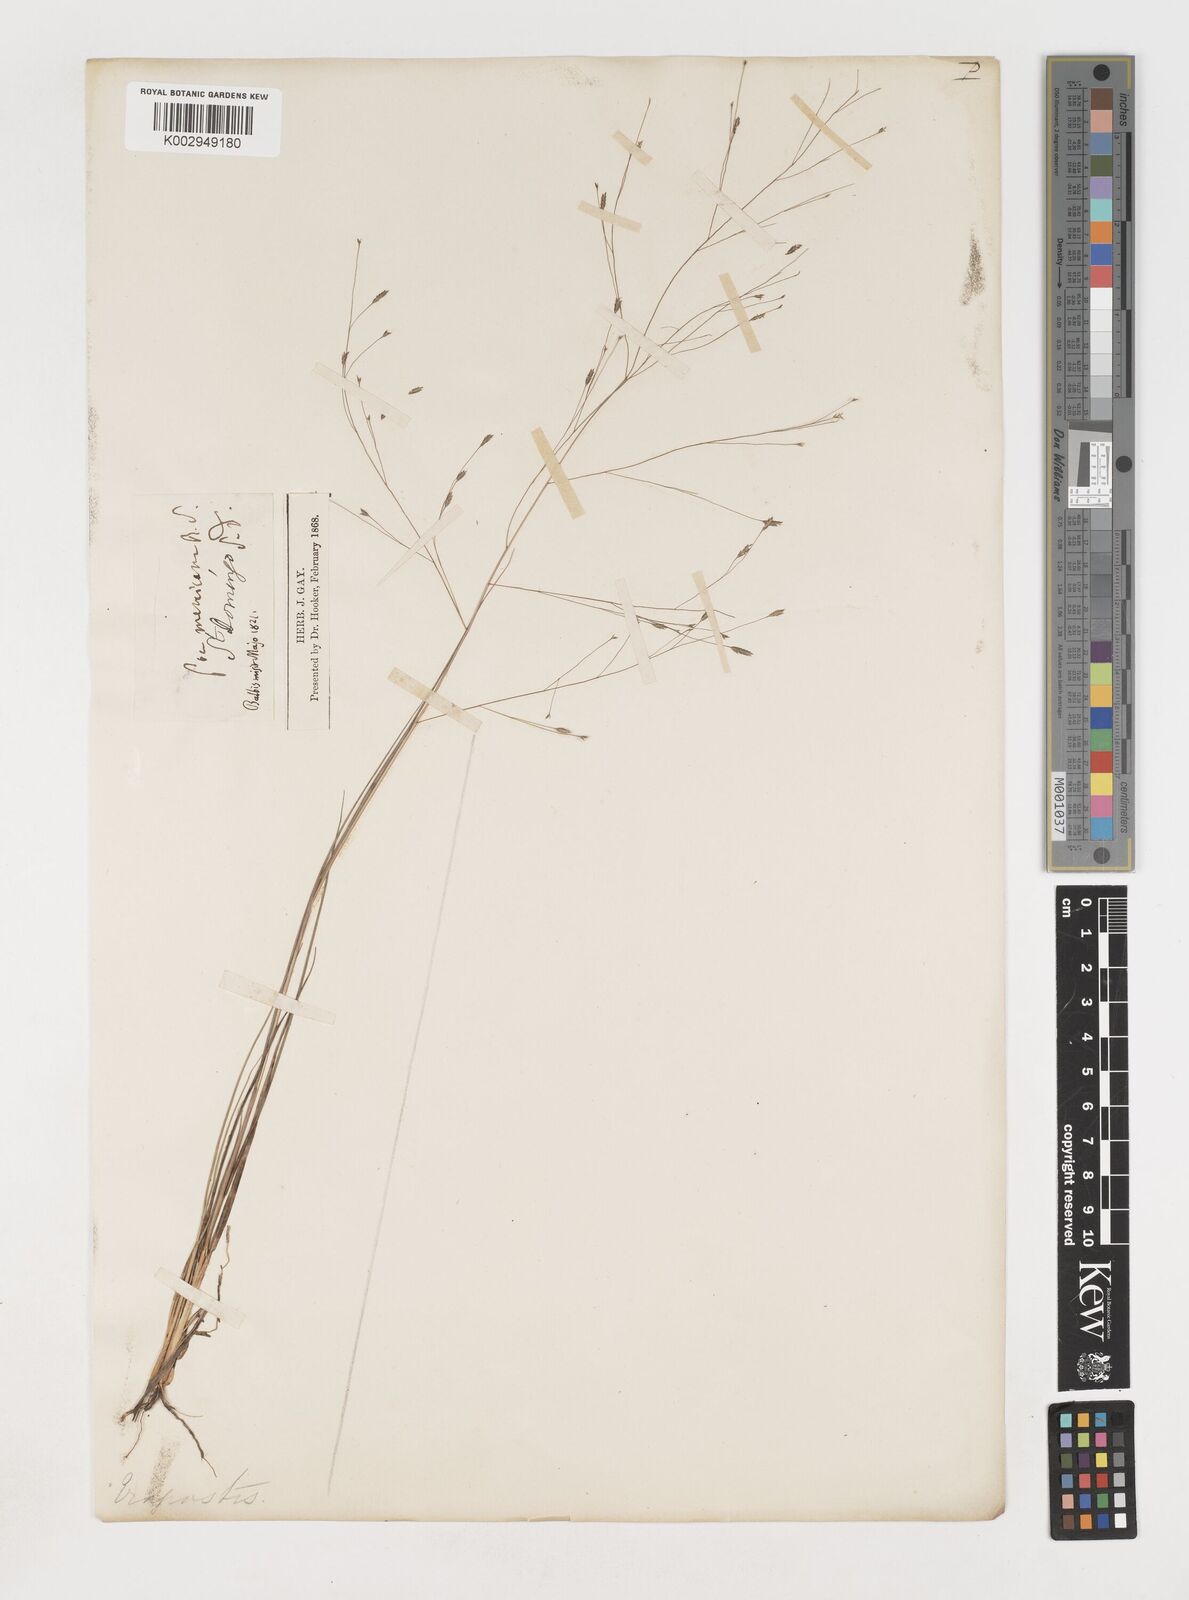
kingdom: Plantae
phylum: Tracheophyta
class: Liliopsida
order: Poales
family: Poaceae
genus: Eragrostis
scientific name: Eragrostis elliottii
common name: Elliott's love grass
